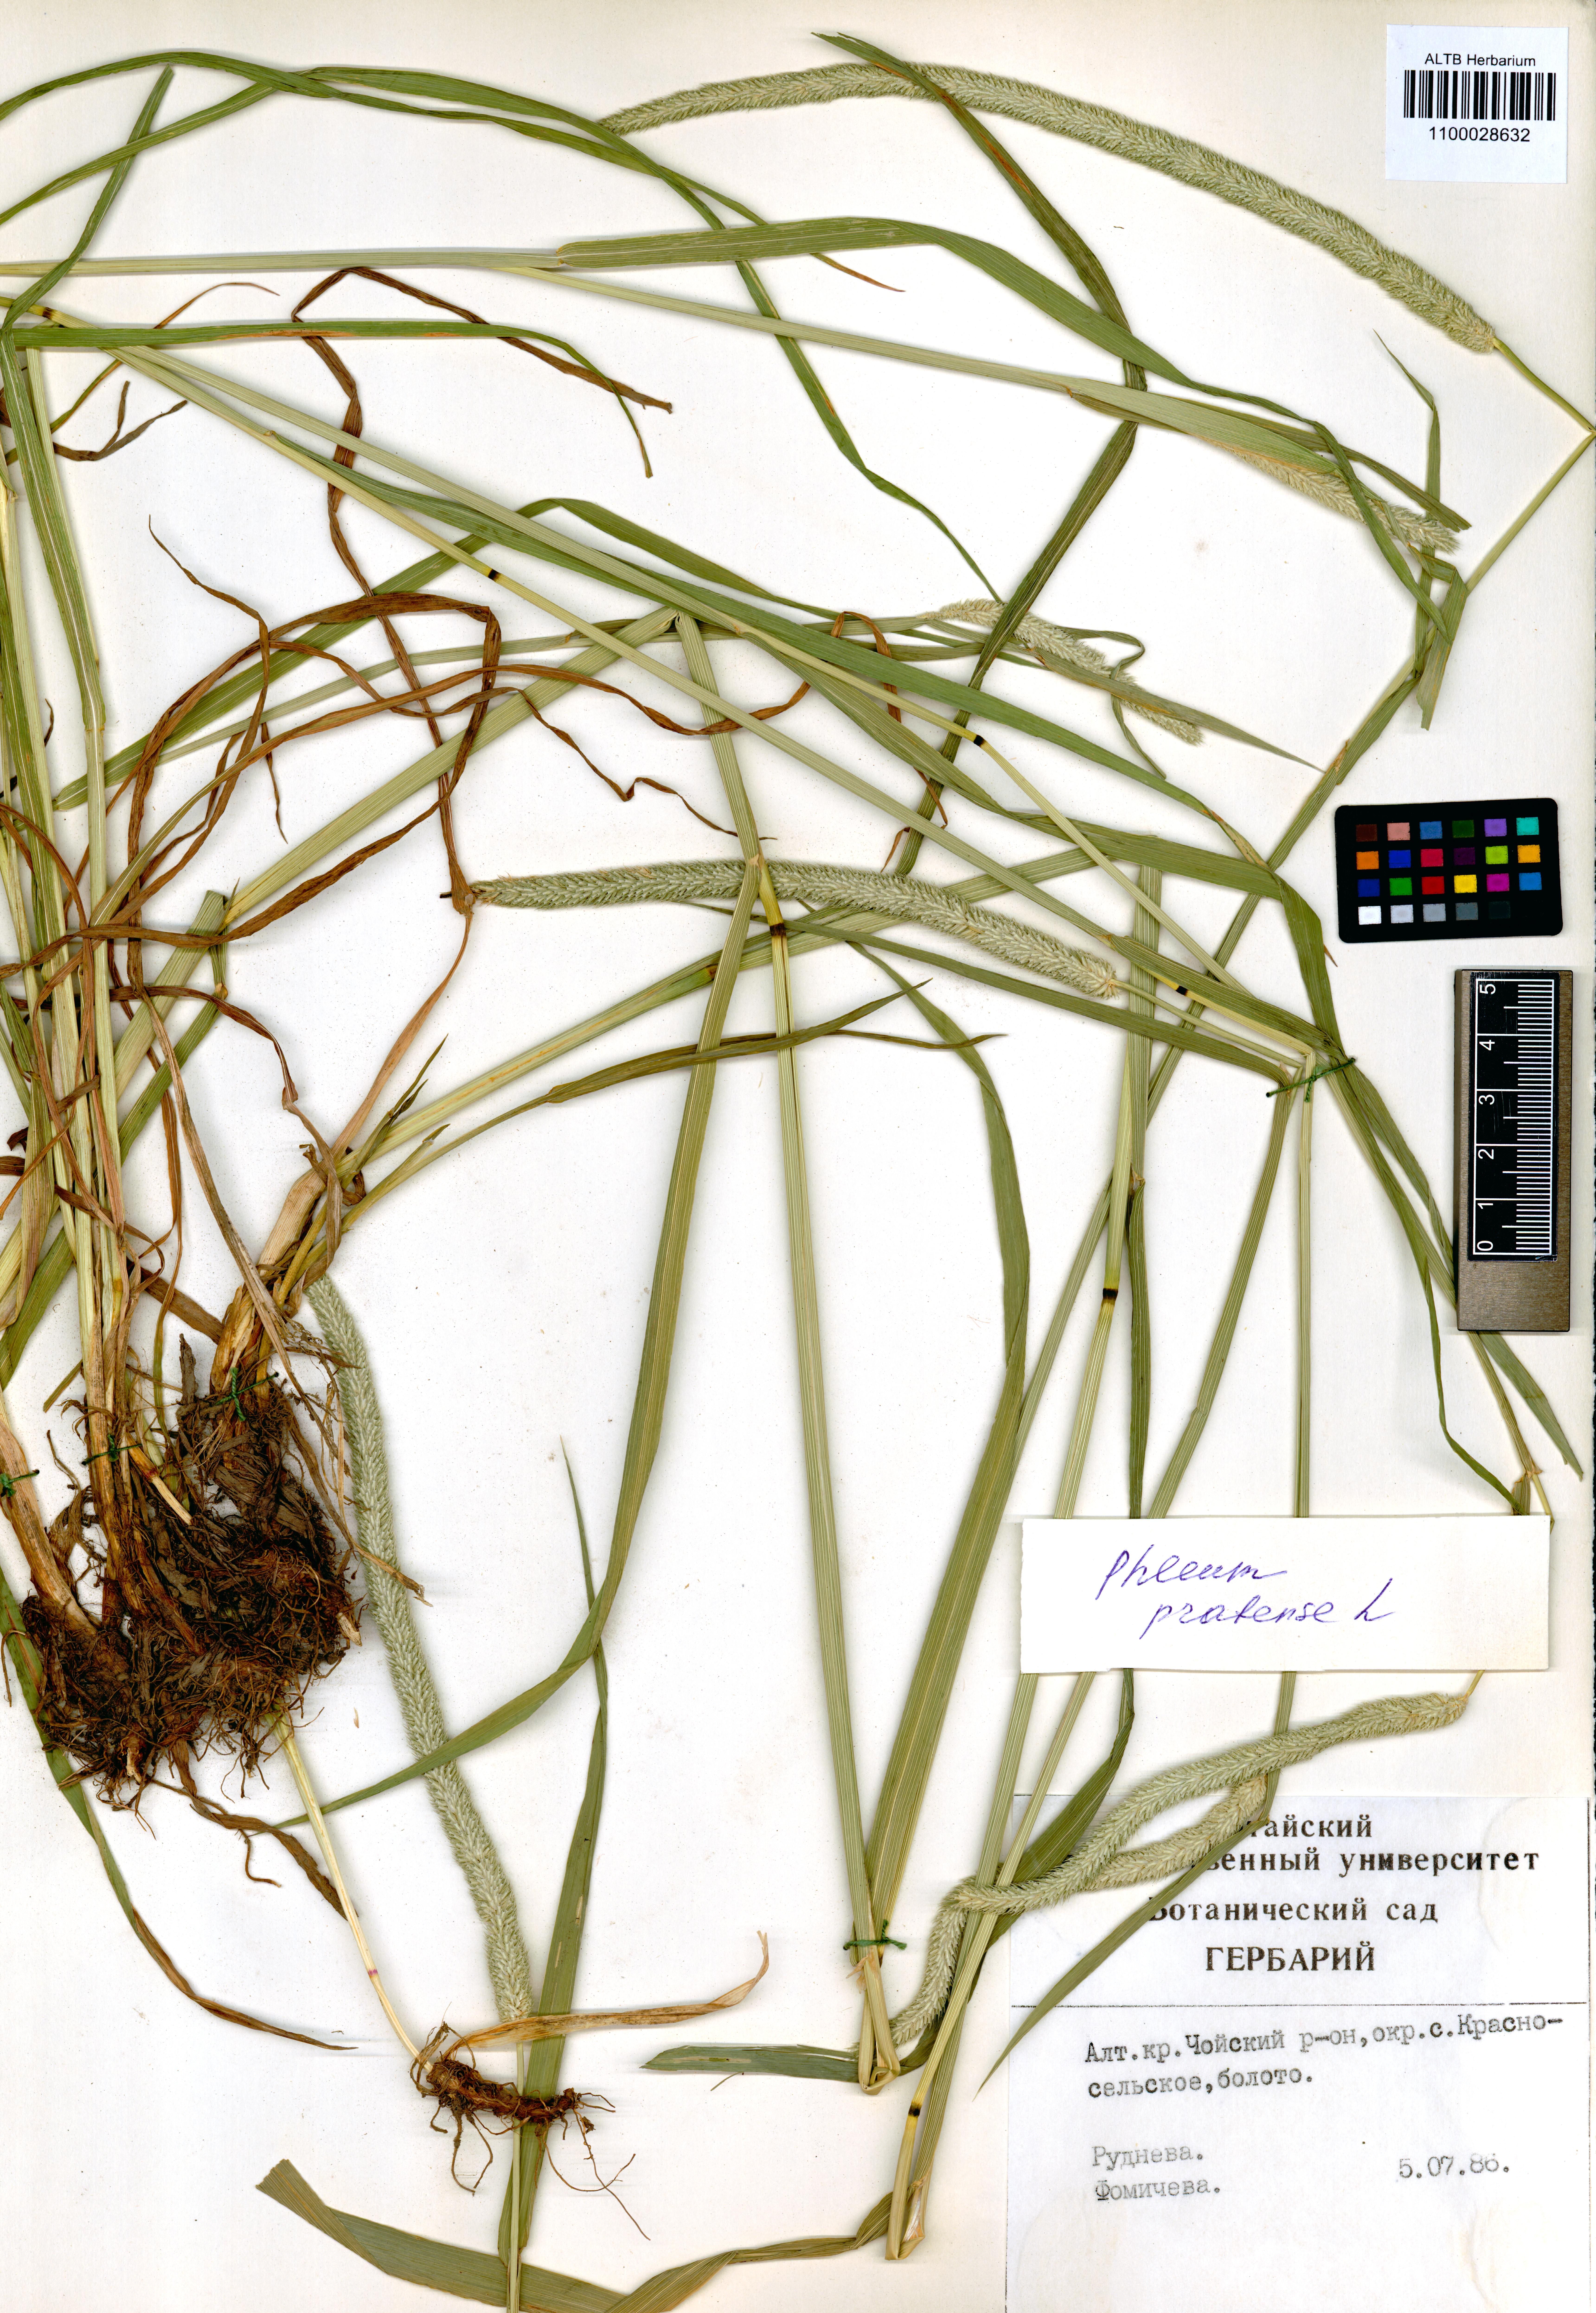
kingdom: Plantae
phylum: Tracheophyta
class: Liliopsida
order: Poales
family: Poaceae
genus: Phleum
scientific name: Phleum pratense
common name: Timothy grass
